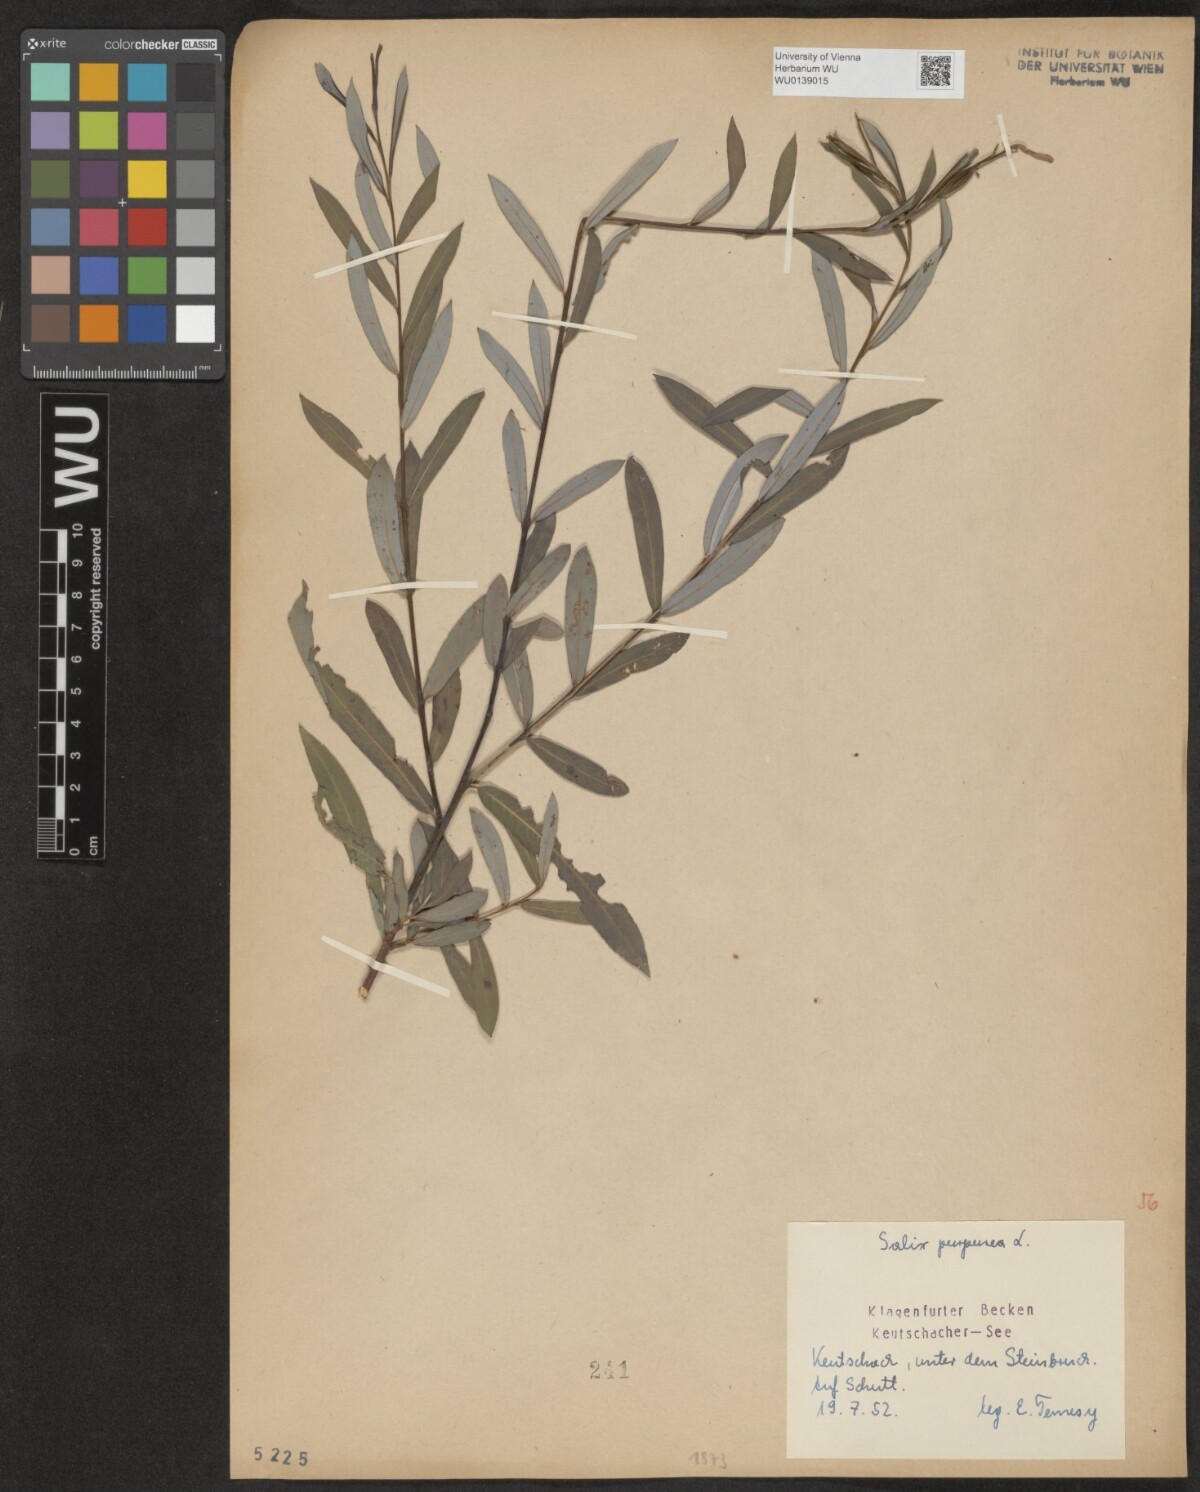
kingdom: Plantae
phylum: Tracheophyta
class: Magnoliopsida
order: Malpighiales
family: Salicaceae
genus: Salix
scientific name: Salix purpurea
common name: Purple willow
